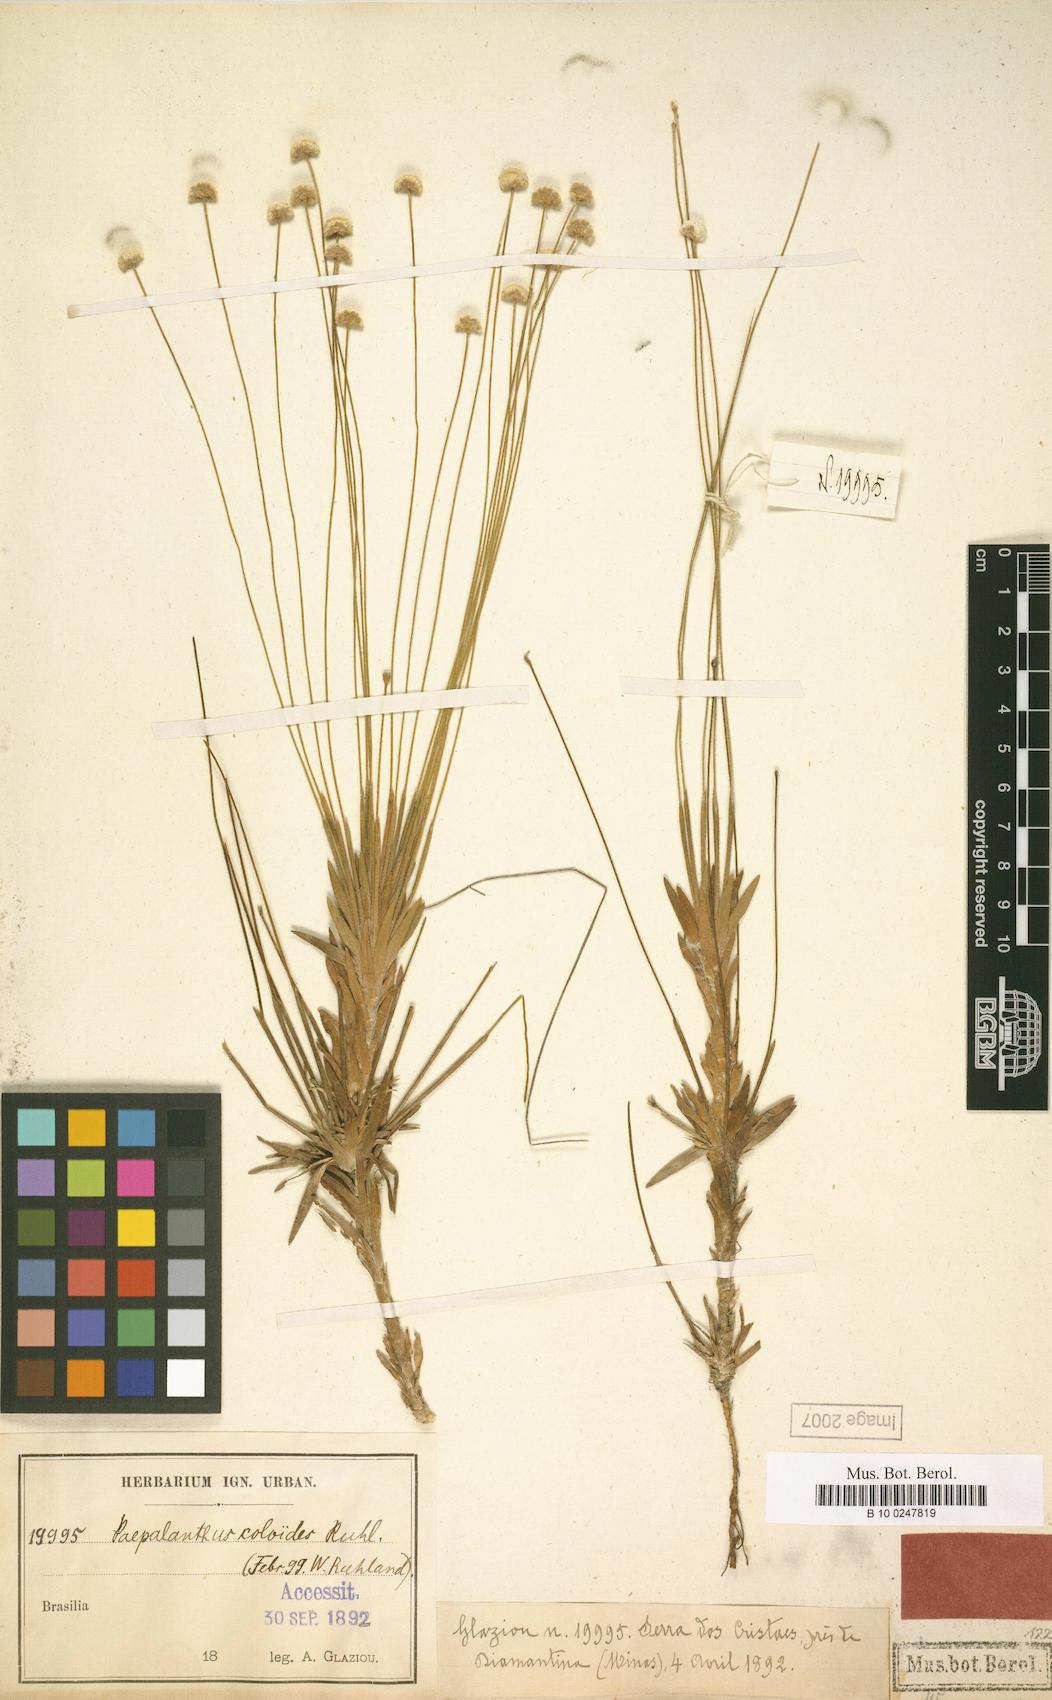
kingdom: Plantae
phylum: Tracheophyta
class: Liliopsida
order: Poales
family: Eriocaulaceae
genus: Paepalanthus
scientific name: Paepalanthus coloides
